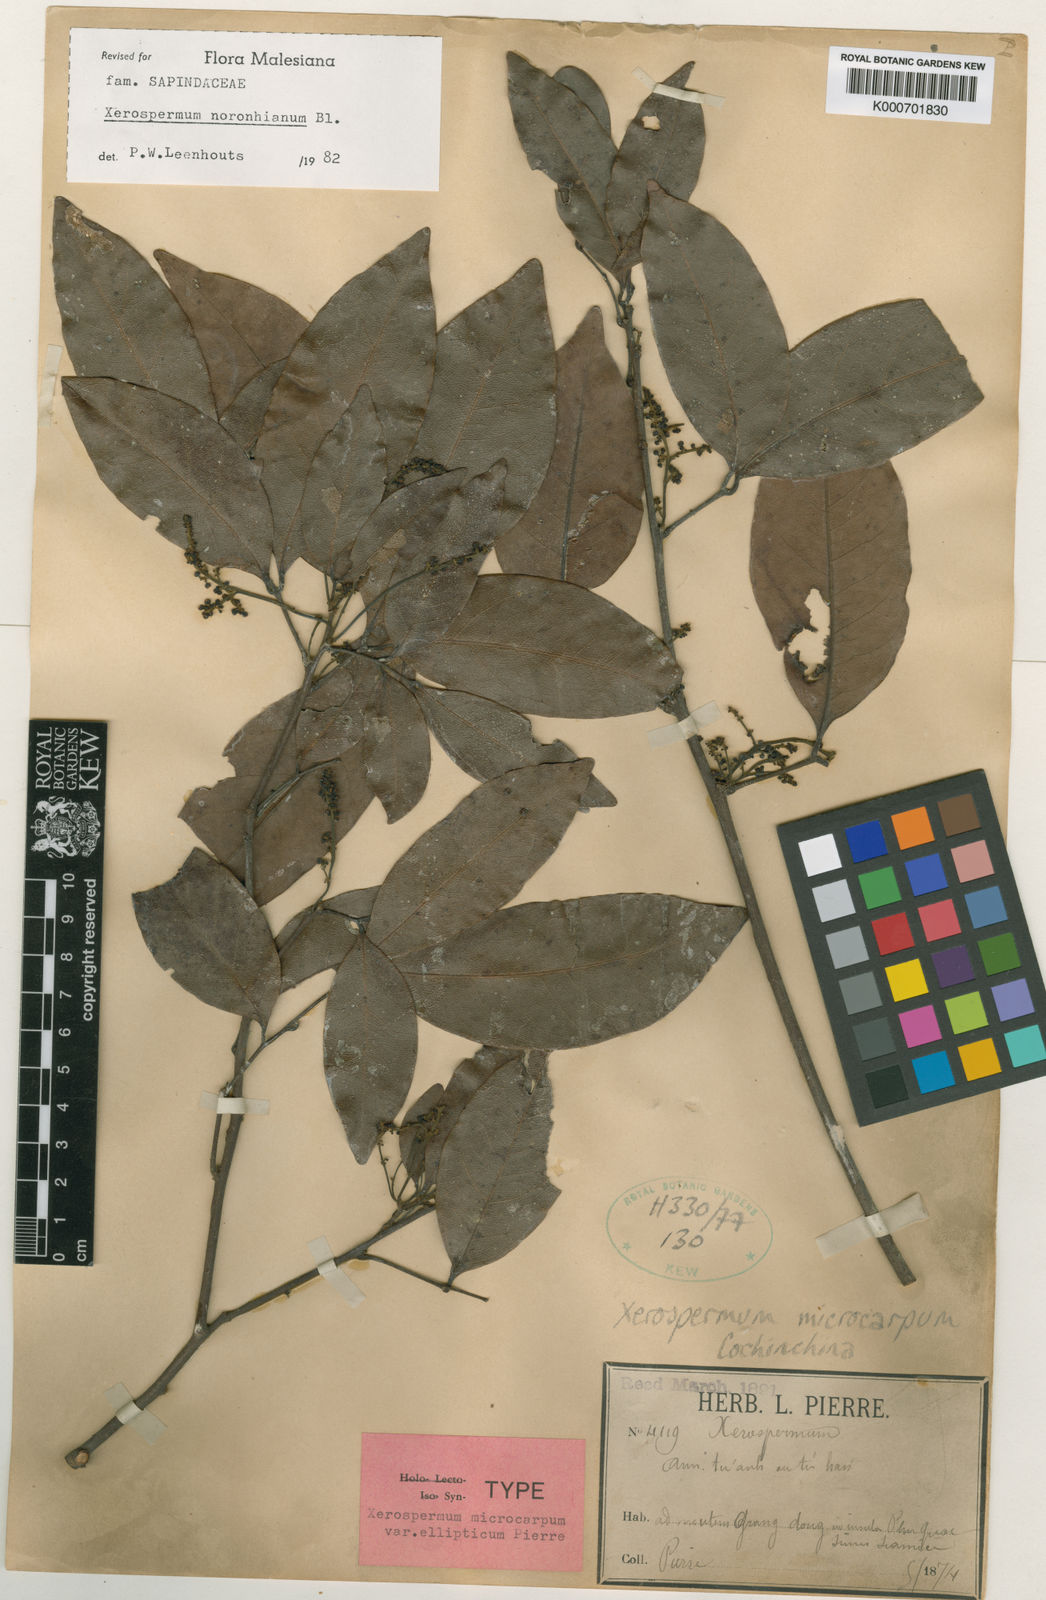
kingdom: Plantae
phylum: Tracheophyta
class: Magnoliopsida
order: Sapindales
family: Sapindaceae
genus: Xerospermum
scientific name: Xerospermum noronhianum
